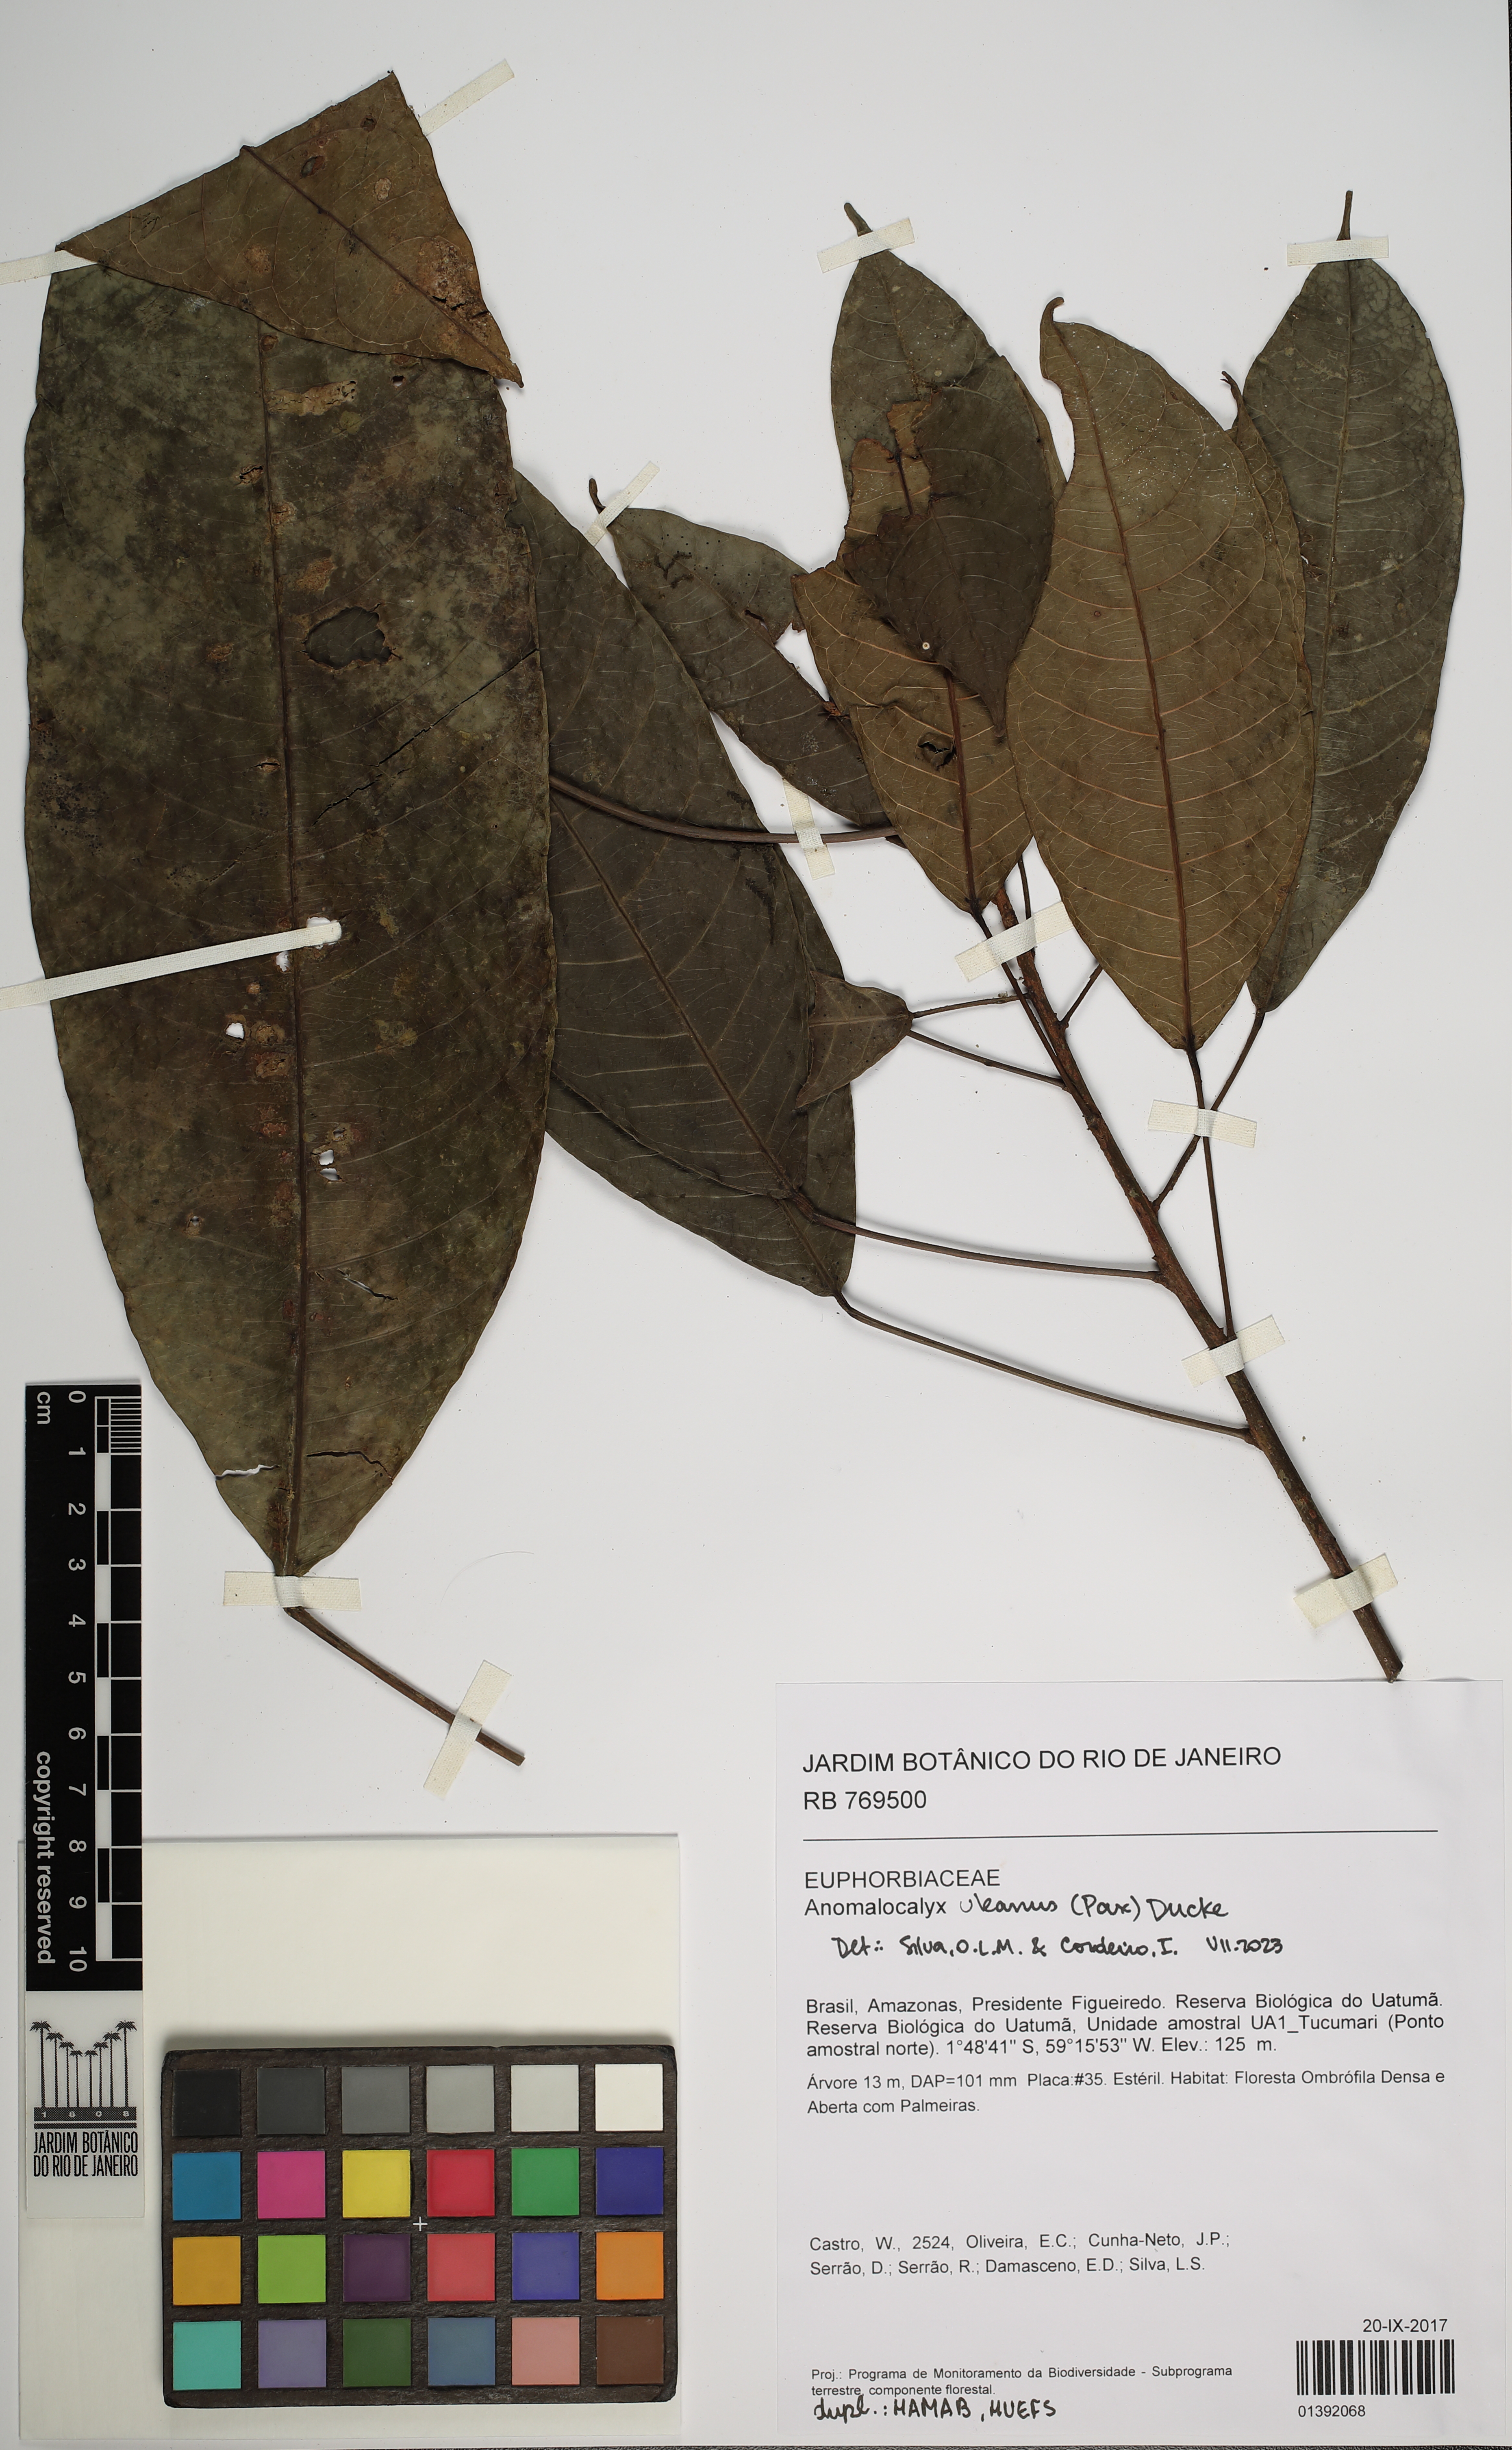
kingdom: Plantae
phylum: Tracheophyta
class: Magnoliopsida
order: Malpighiales
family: Euphorbiaceae
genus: Dodecastigma
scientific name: Dodecastigma uleanum
